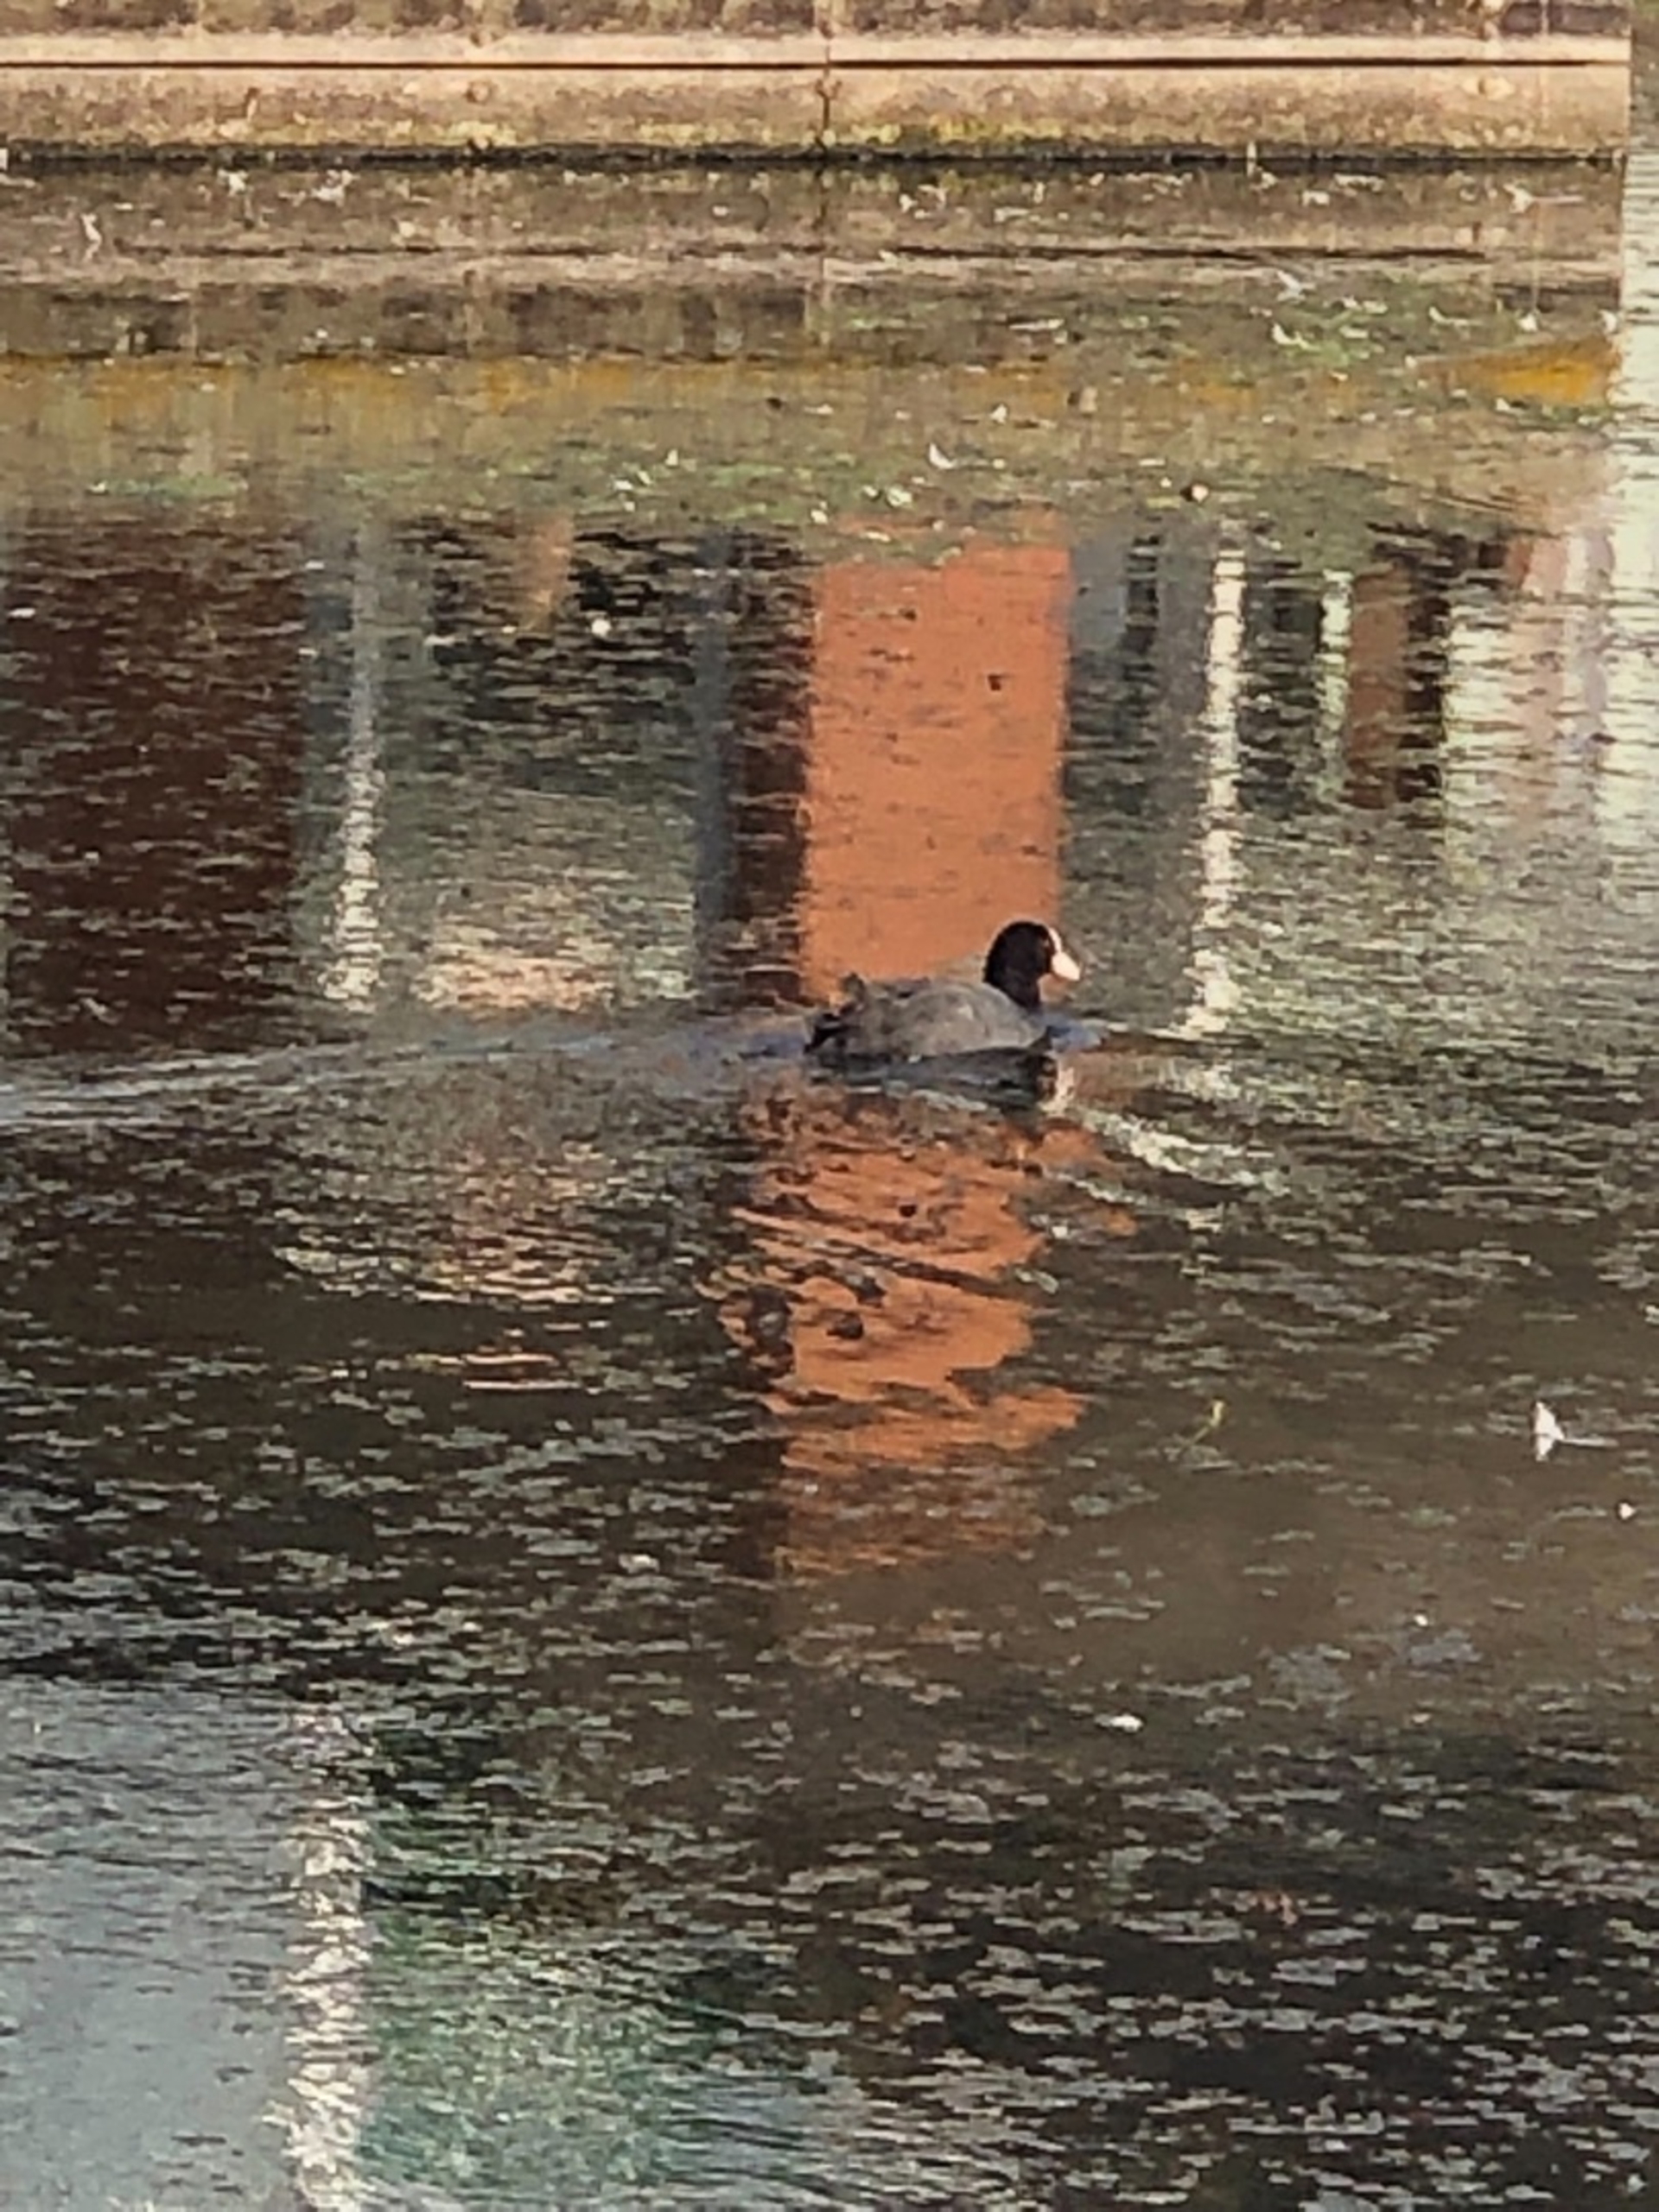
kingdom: Animalia
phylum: Chordata
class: Aves
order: Gruiformes
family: Rallidae
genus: Fulica
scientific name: Fulica atra
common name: Blishøne
